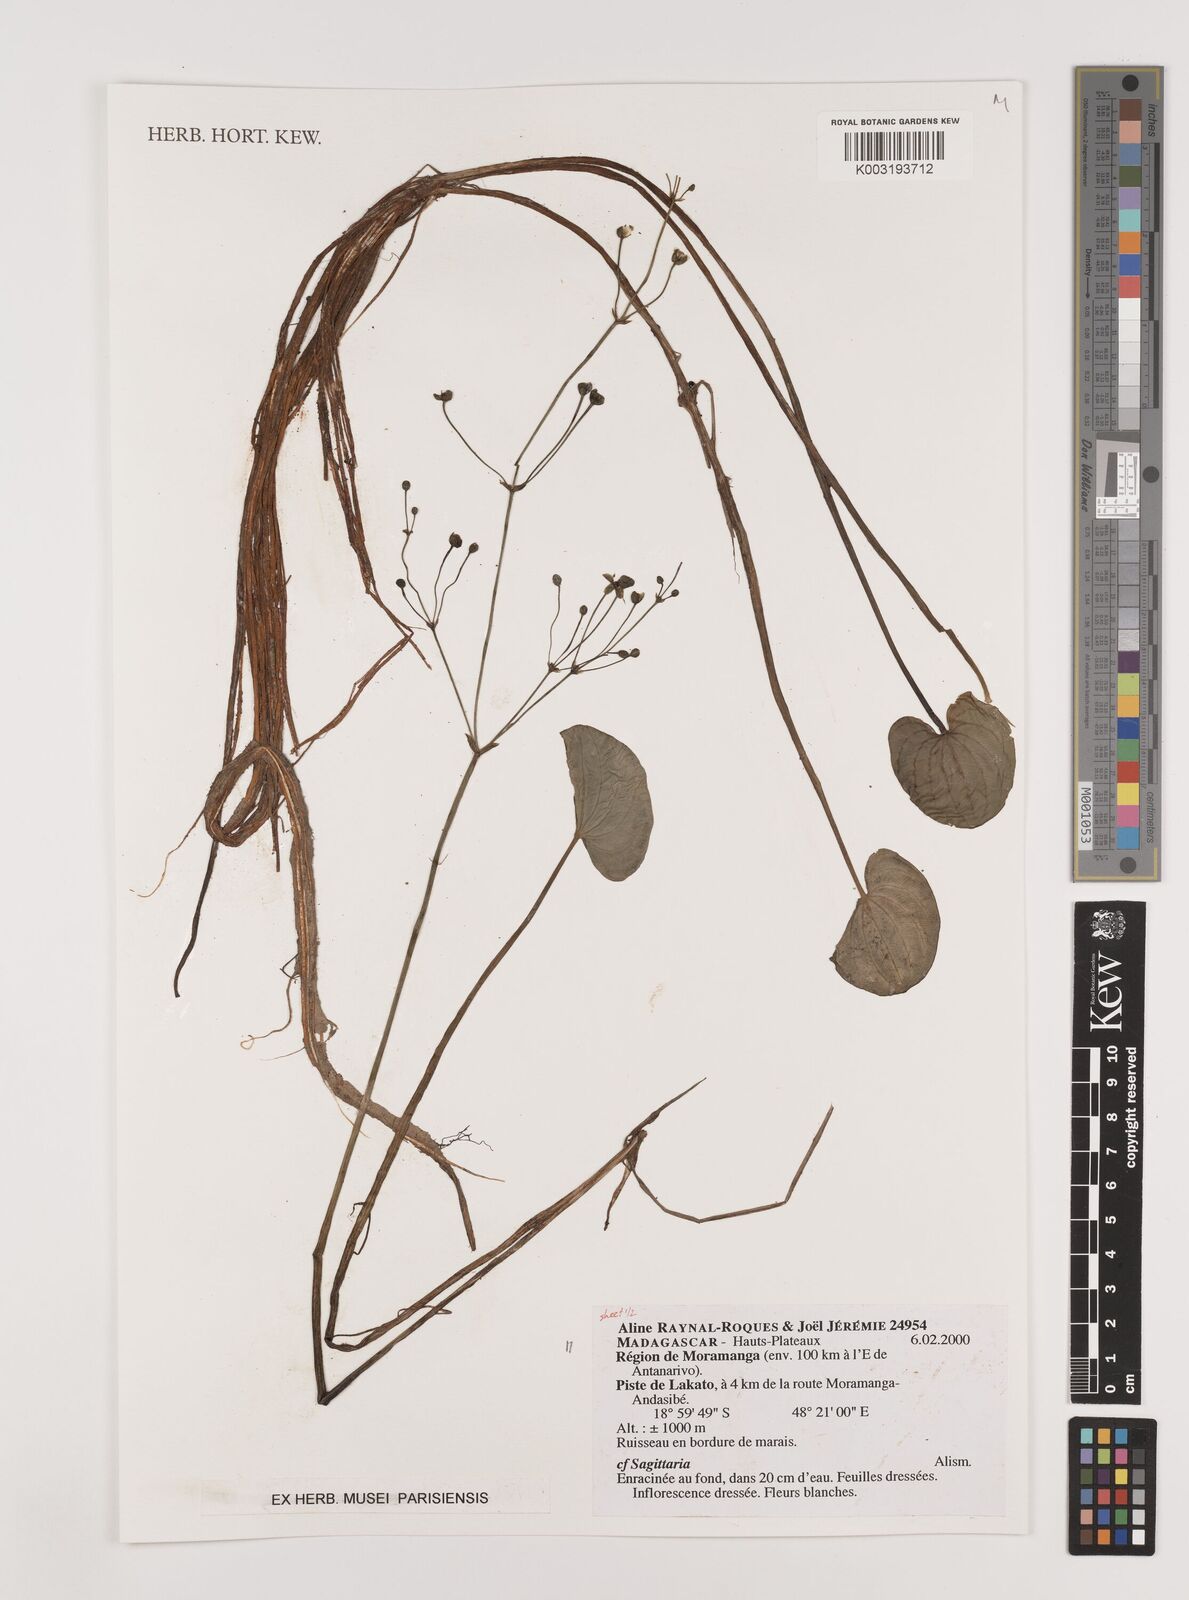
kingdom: Plantae
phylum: Tracheophyta
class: Liliopsida
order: Alismatales
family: Alismataceae
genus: Sagittaria
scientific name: Sagittaria
